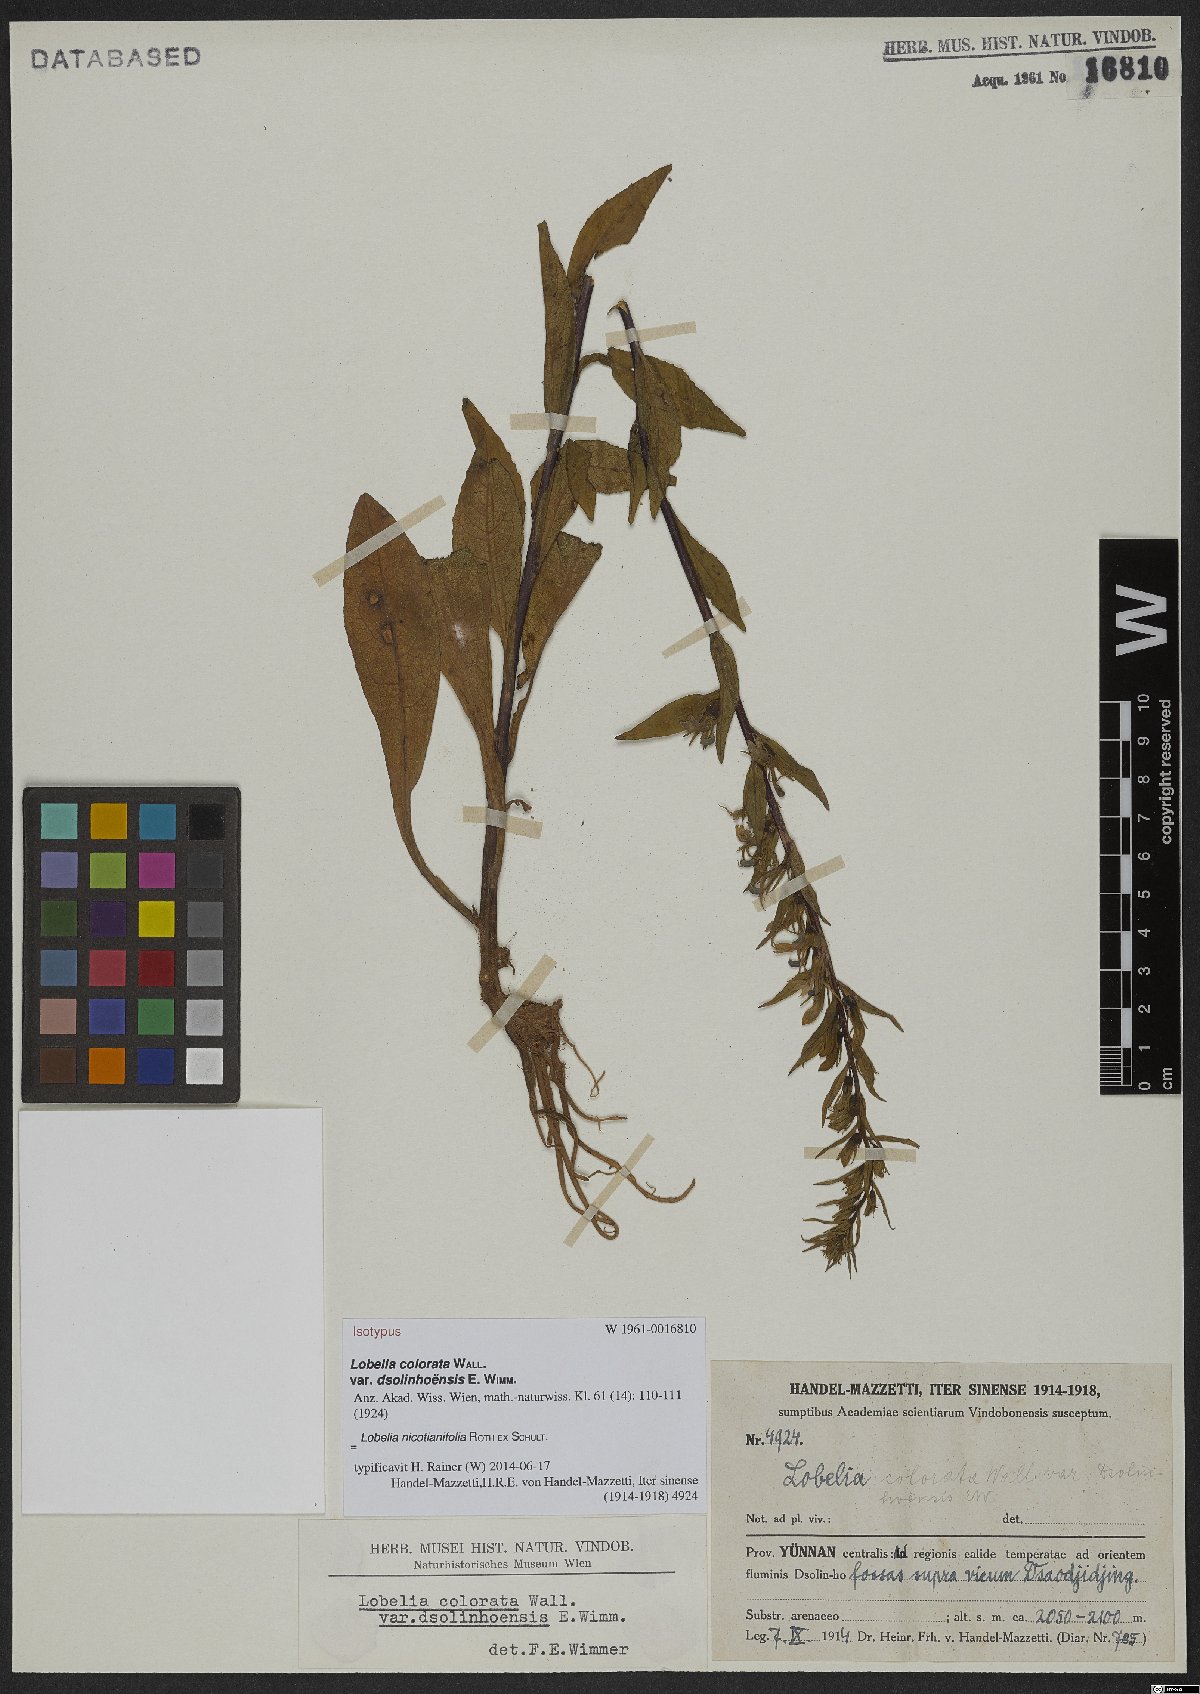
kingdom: Plantae
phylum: Tracheophyta
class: Magnoliopsida
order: Asterales
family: Campanulaceae
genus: Lobelia
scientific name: Lobelia nicotianifolia
